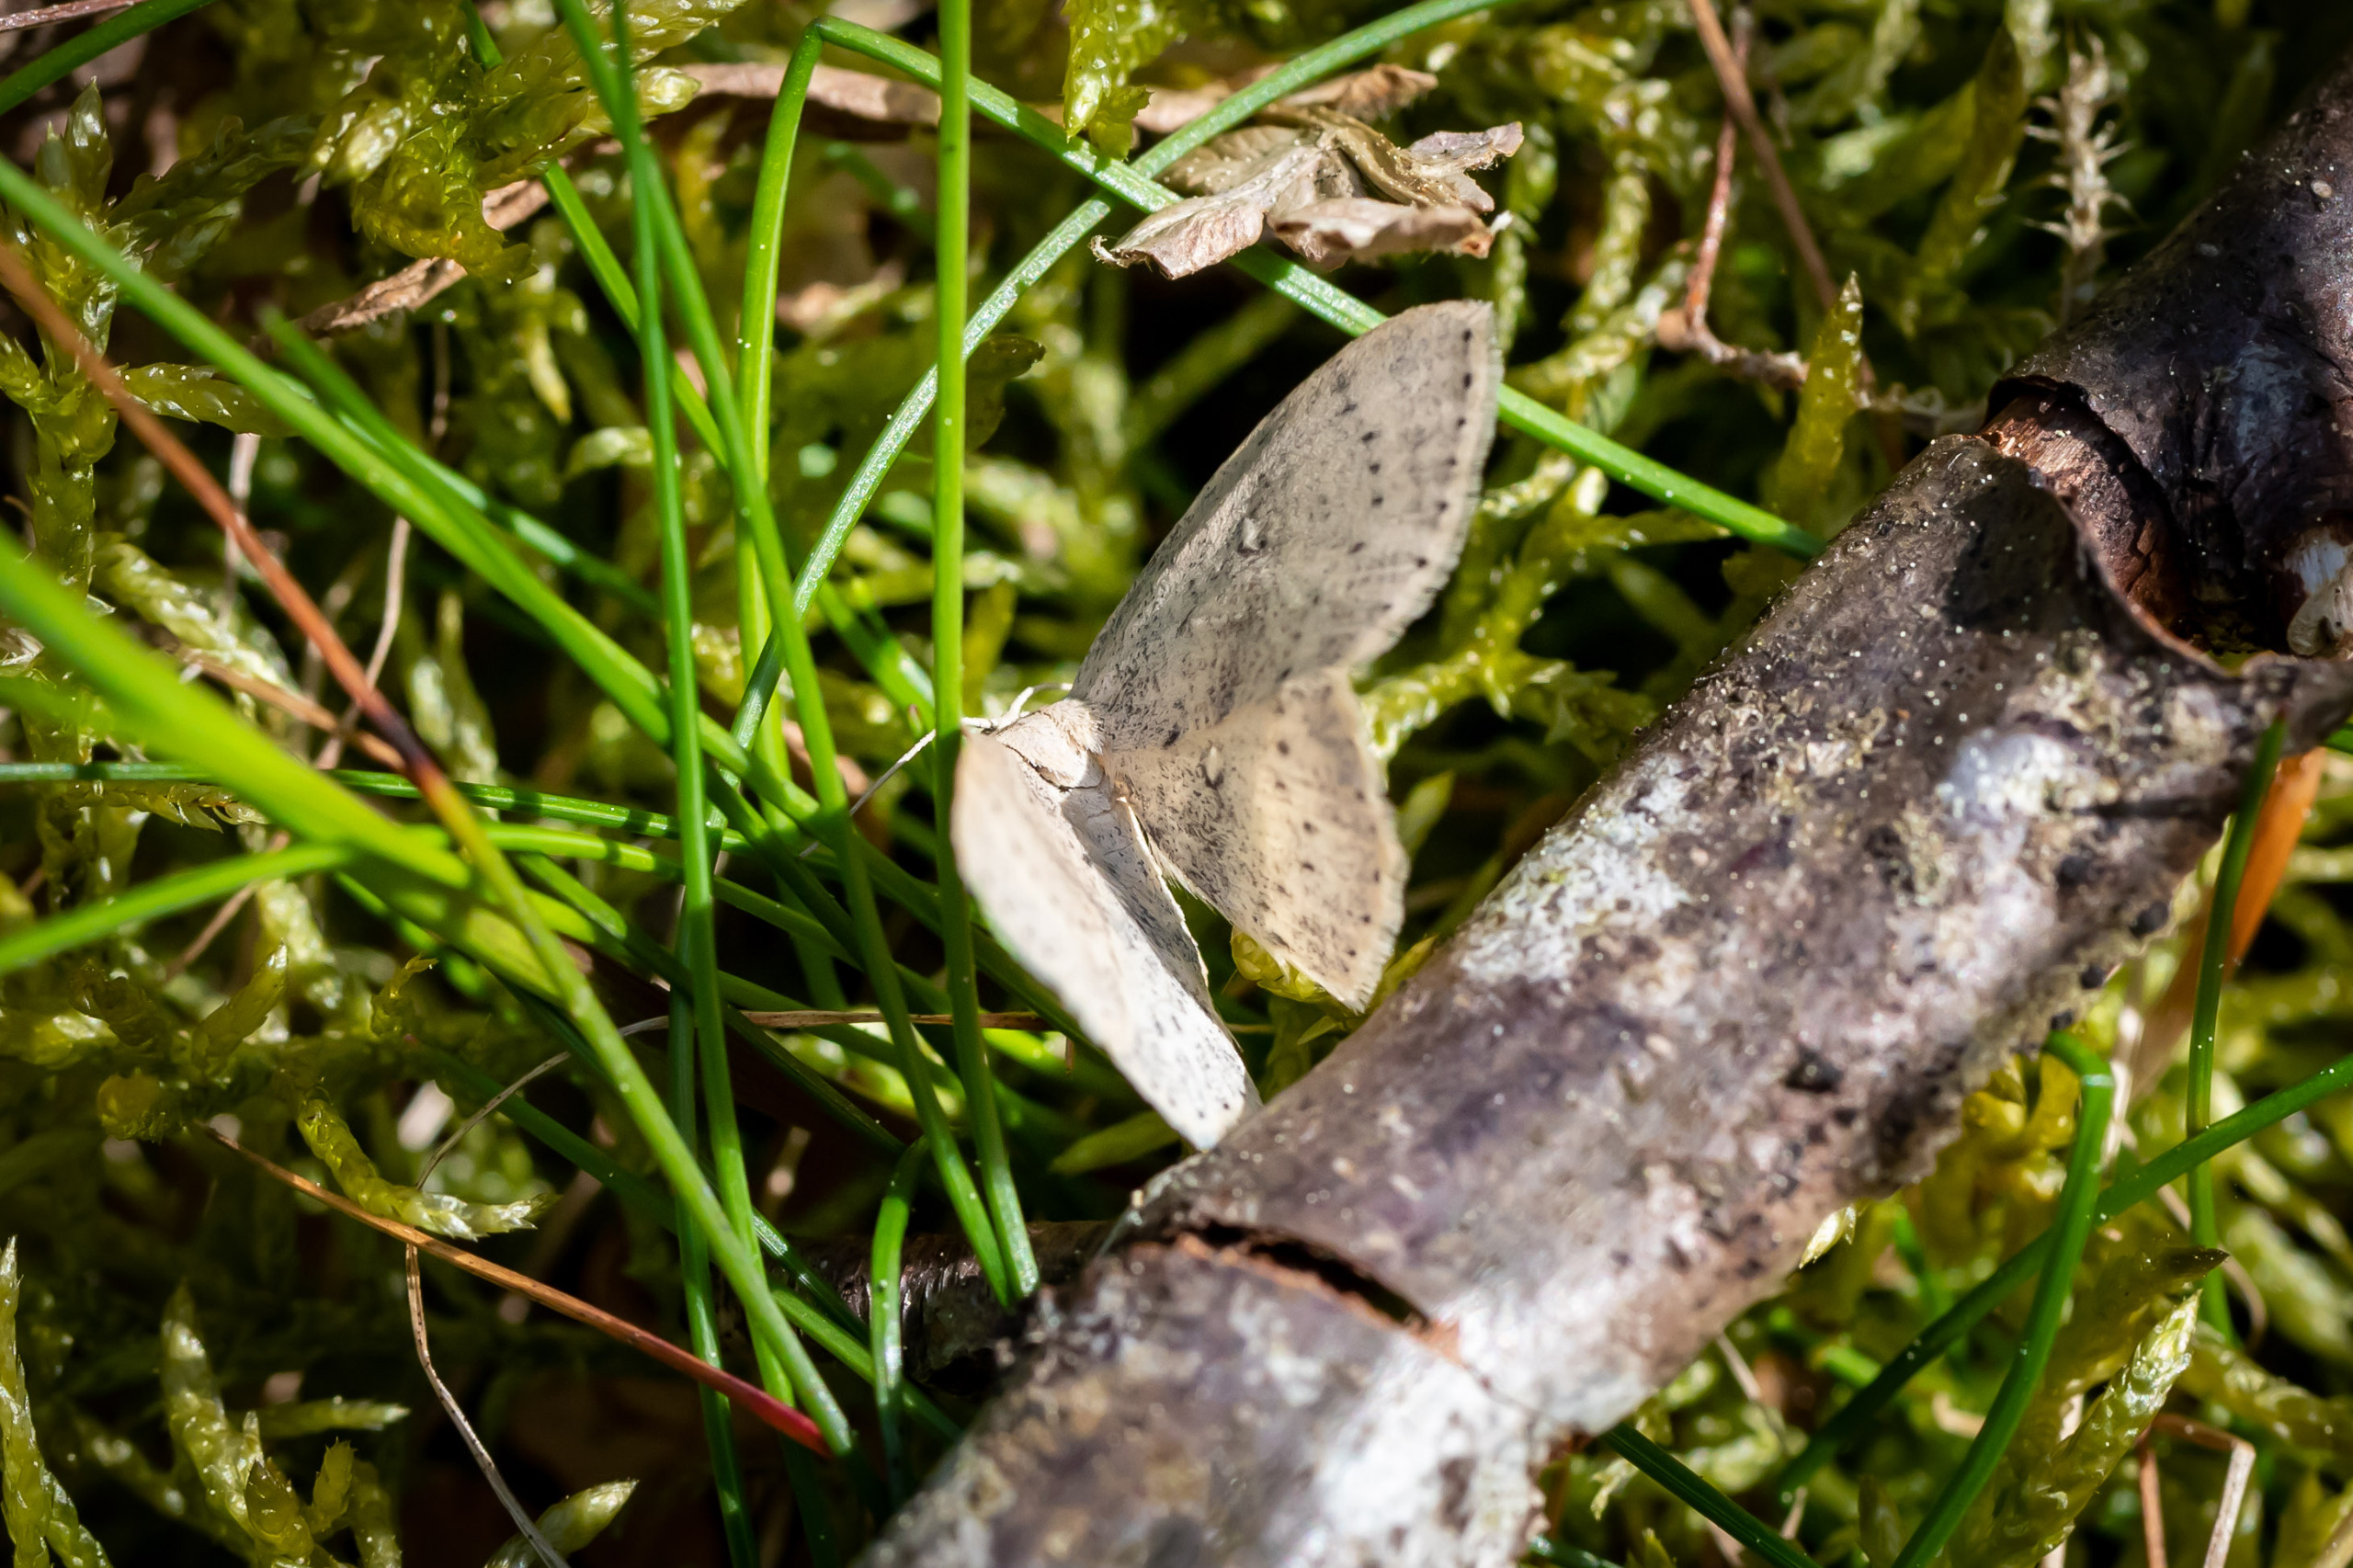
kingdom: Animalia
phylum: Arthropoda
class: Insecta
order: Lepidoptera
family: Geometridae
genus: Cyclophora
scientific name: Cyclophora albipunctata
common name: Birke-bæltemåler
